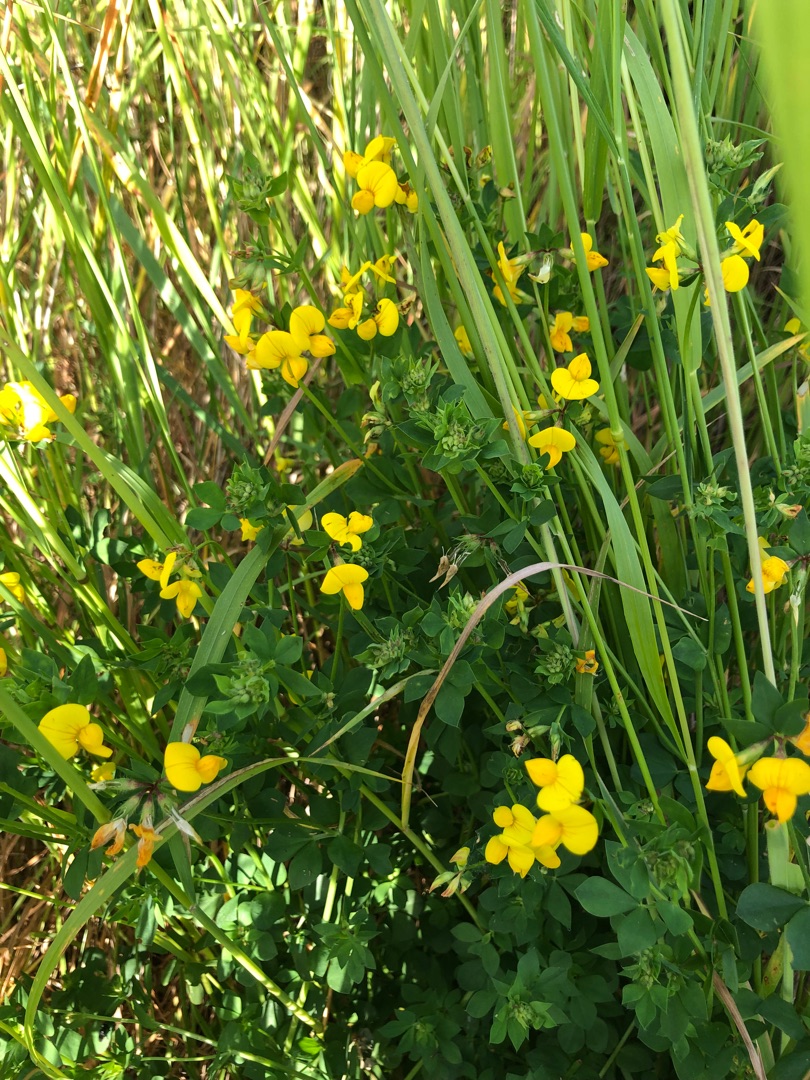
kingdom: Plantae
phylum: Tracheophyta
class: Magnoliopsida
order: Fabales
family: Fabaceae
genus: Lotus
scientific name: Lotus corniculatus
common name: Almindelig kællingetand
